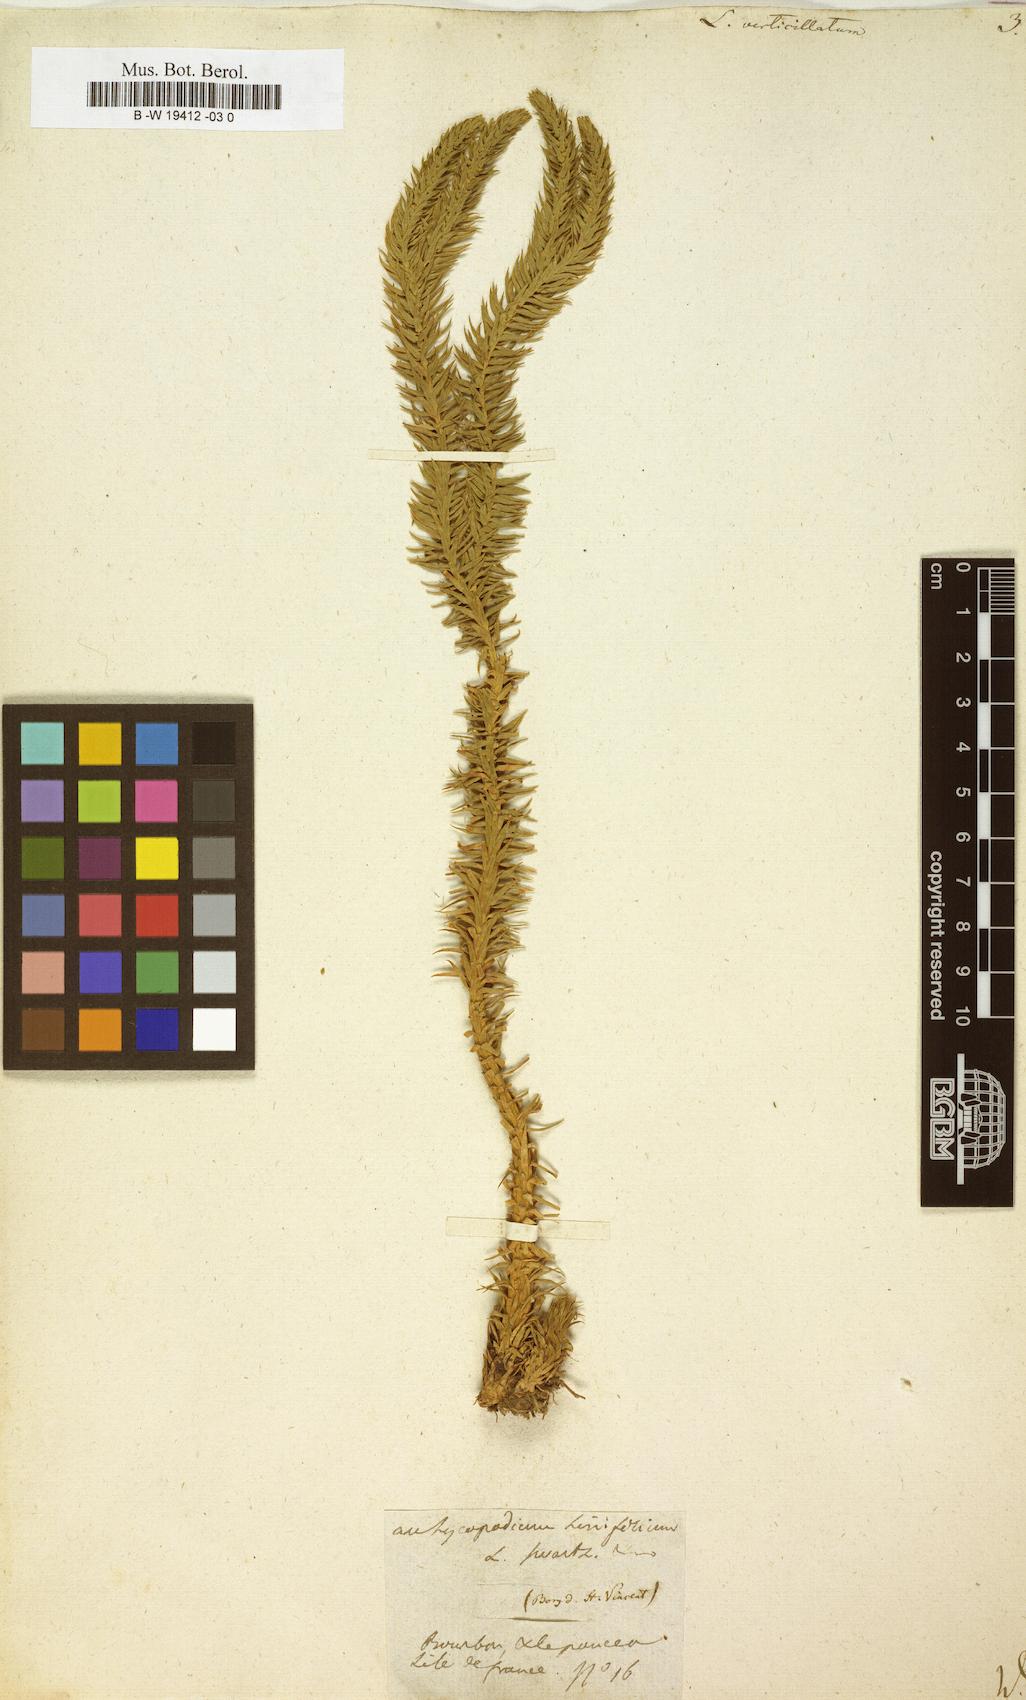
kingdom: Plantae
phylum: Tracheophyta
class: Lycopodiopsida
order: Lycopodiales
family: Lycopodiaceae
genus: Phlegmariurus
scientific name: Phlegmariurus verticillatus
